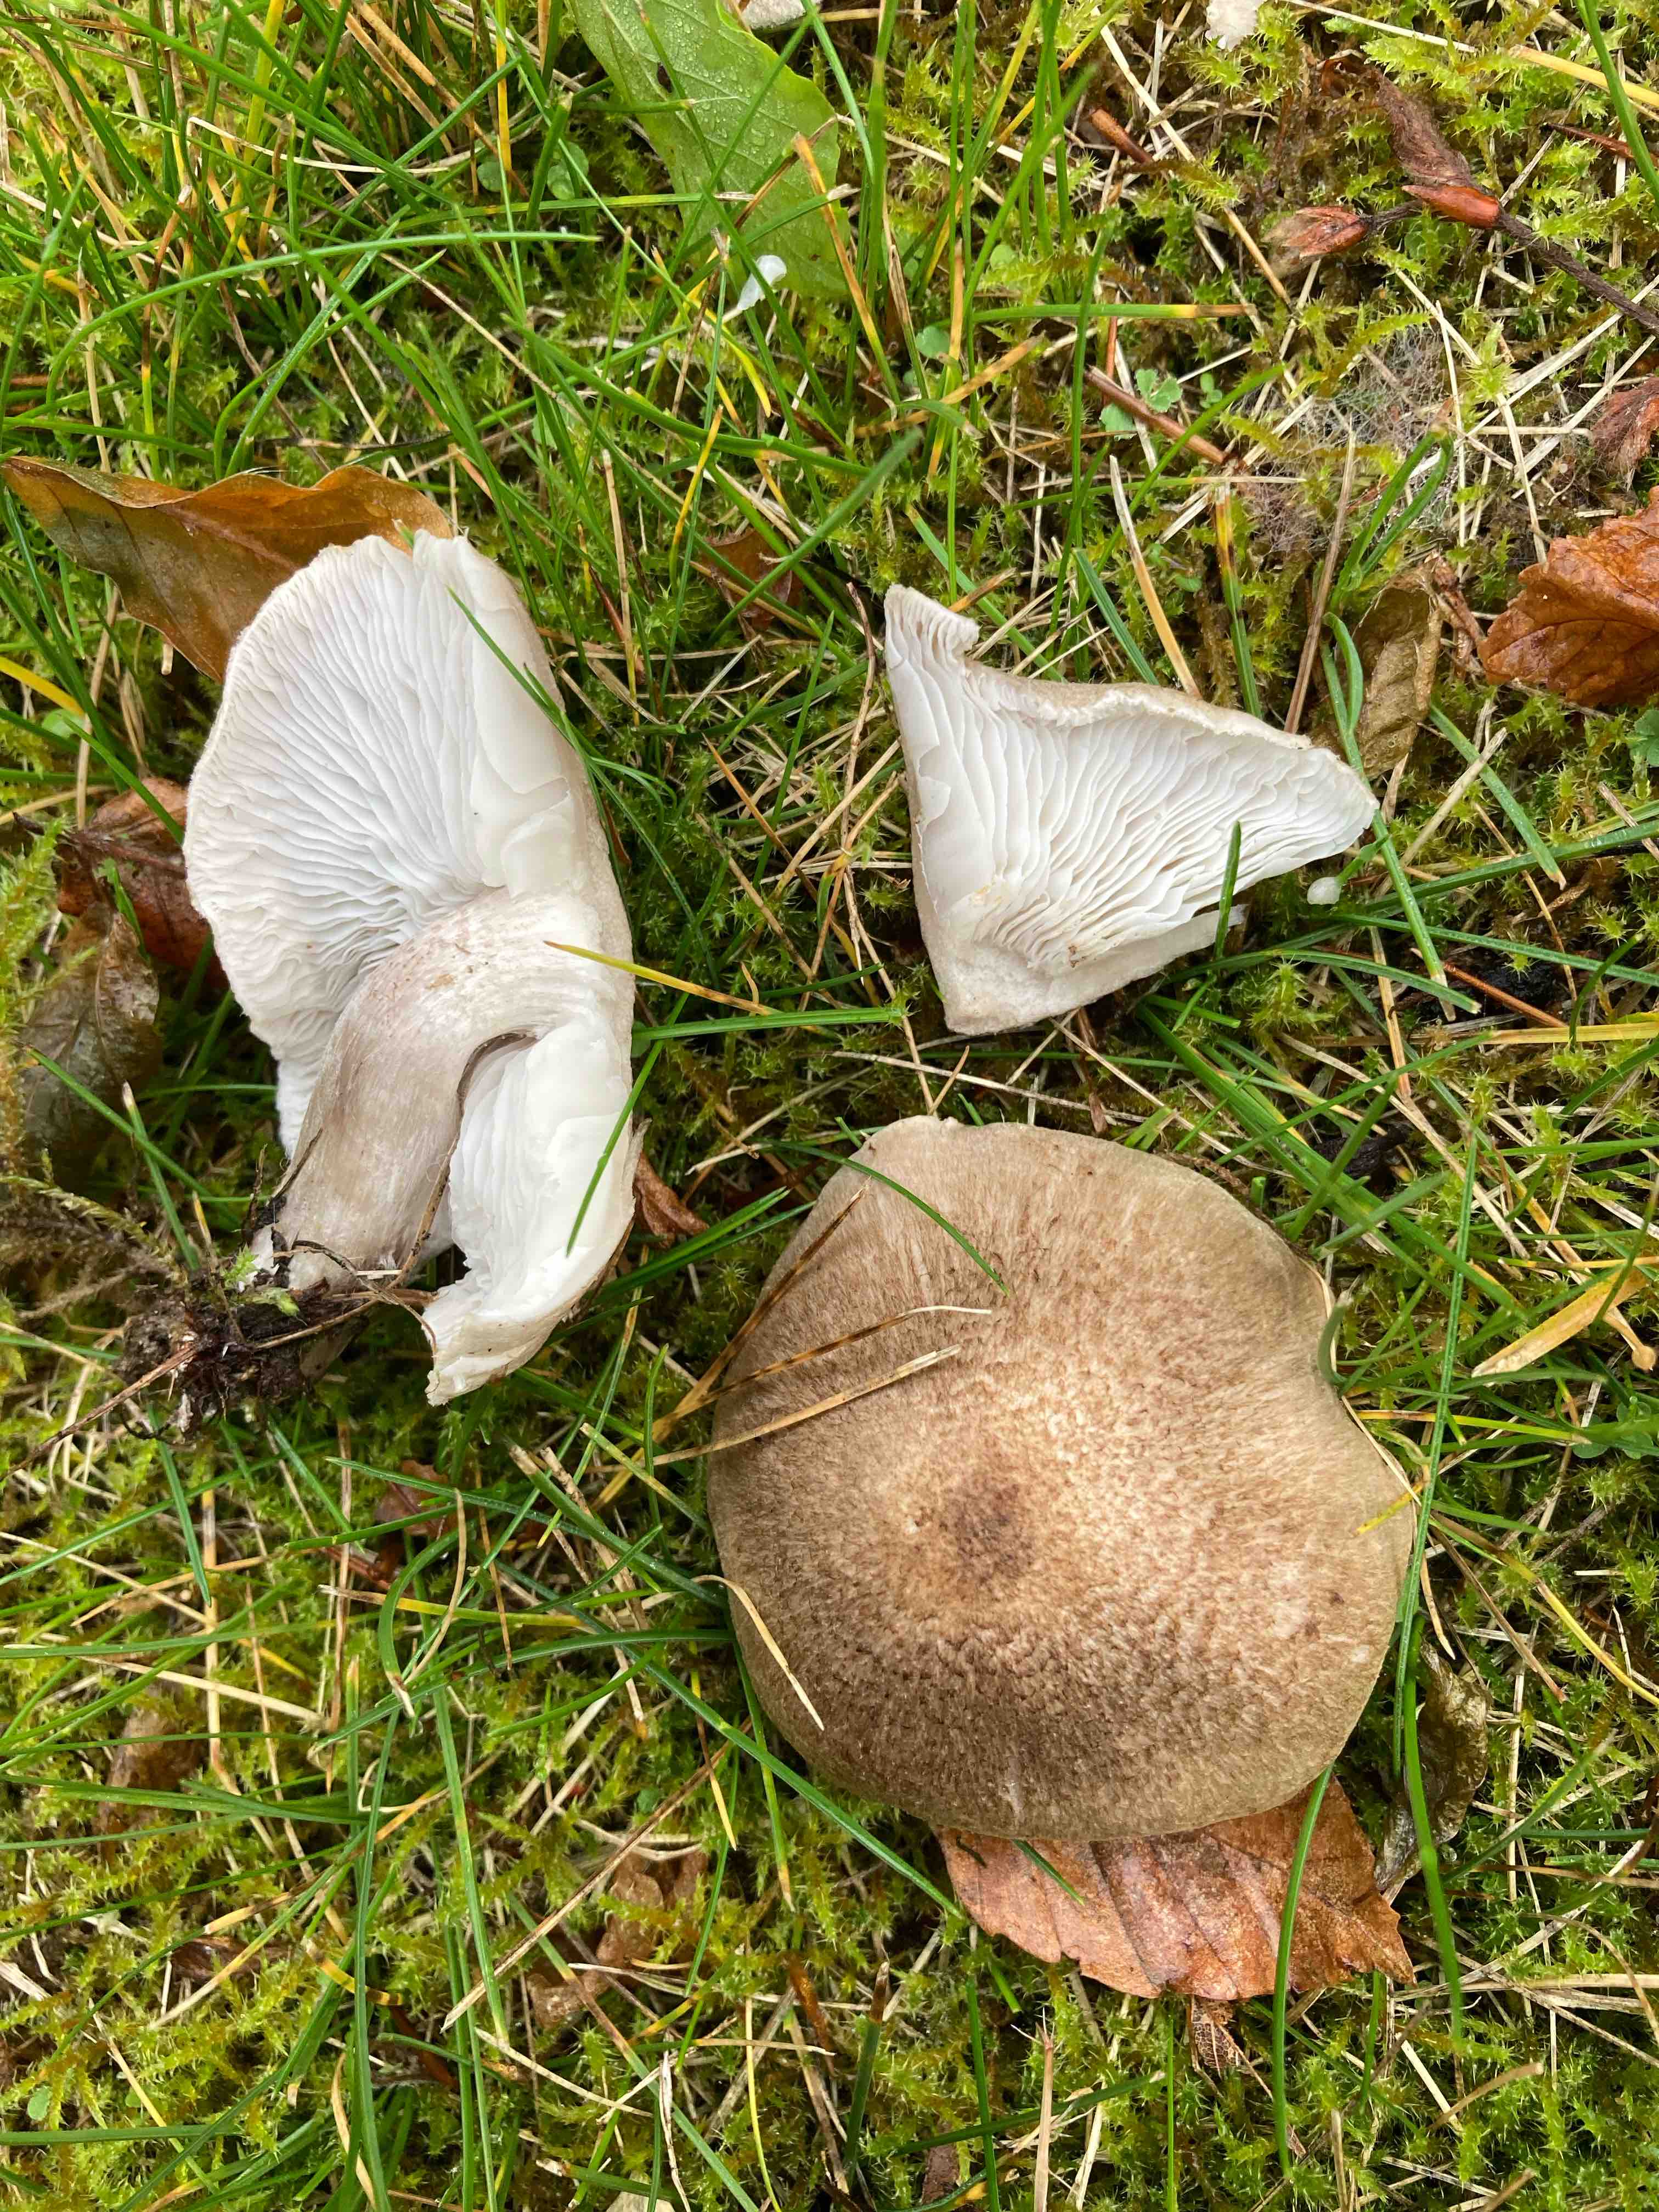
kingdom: Fungi
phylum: Basidiomycota
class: Agaricomycetes
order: Agaricales
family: Tricholomataceae
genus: Tricholoma
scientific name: Tricholoma scalpturatum
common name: gulplettet ridderhat
